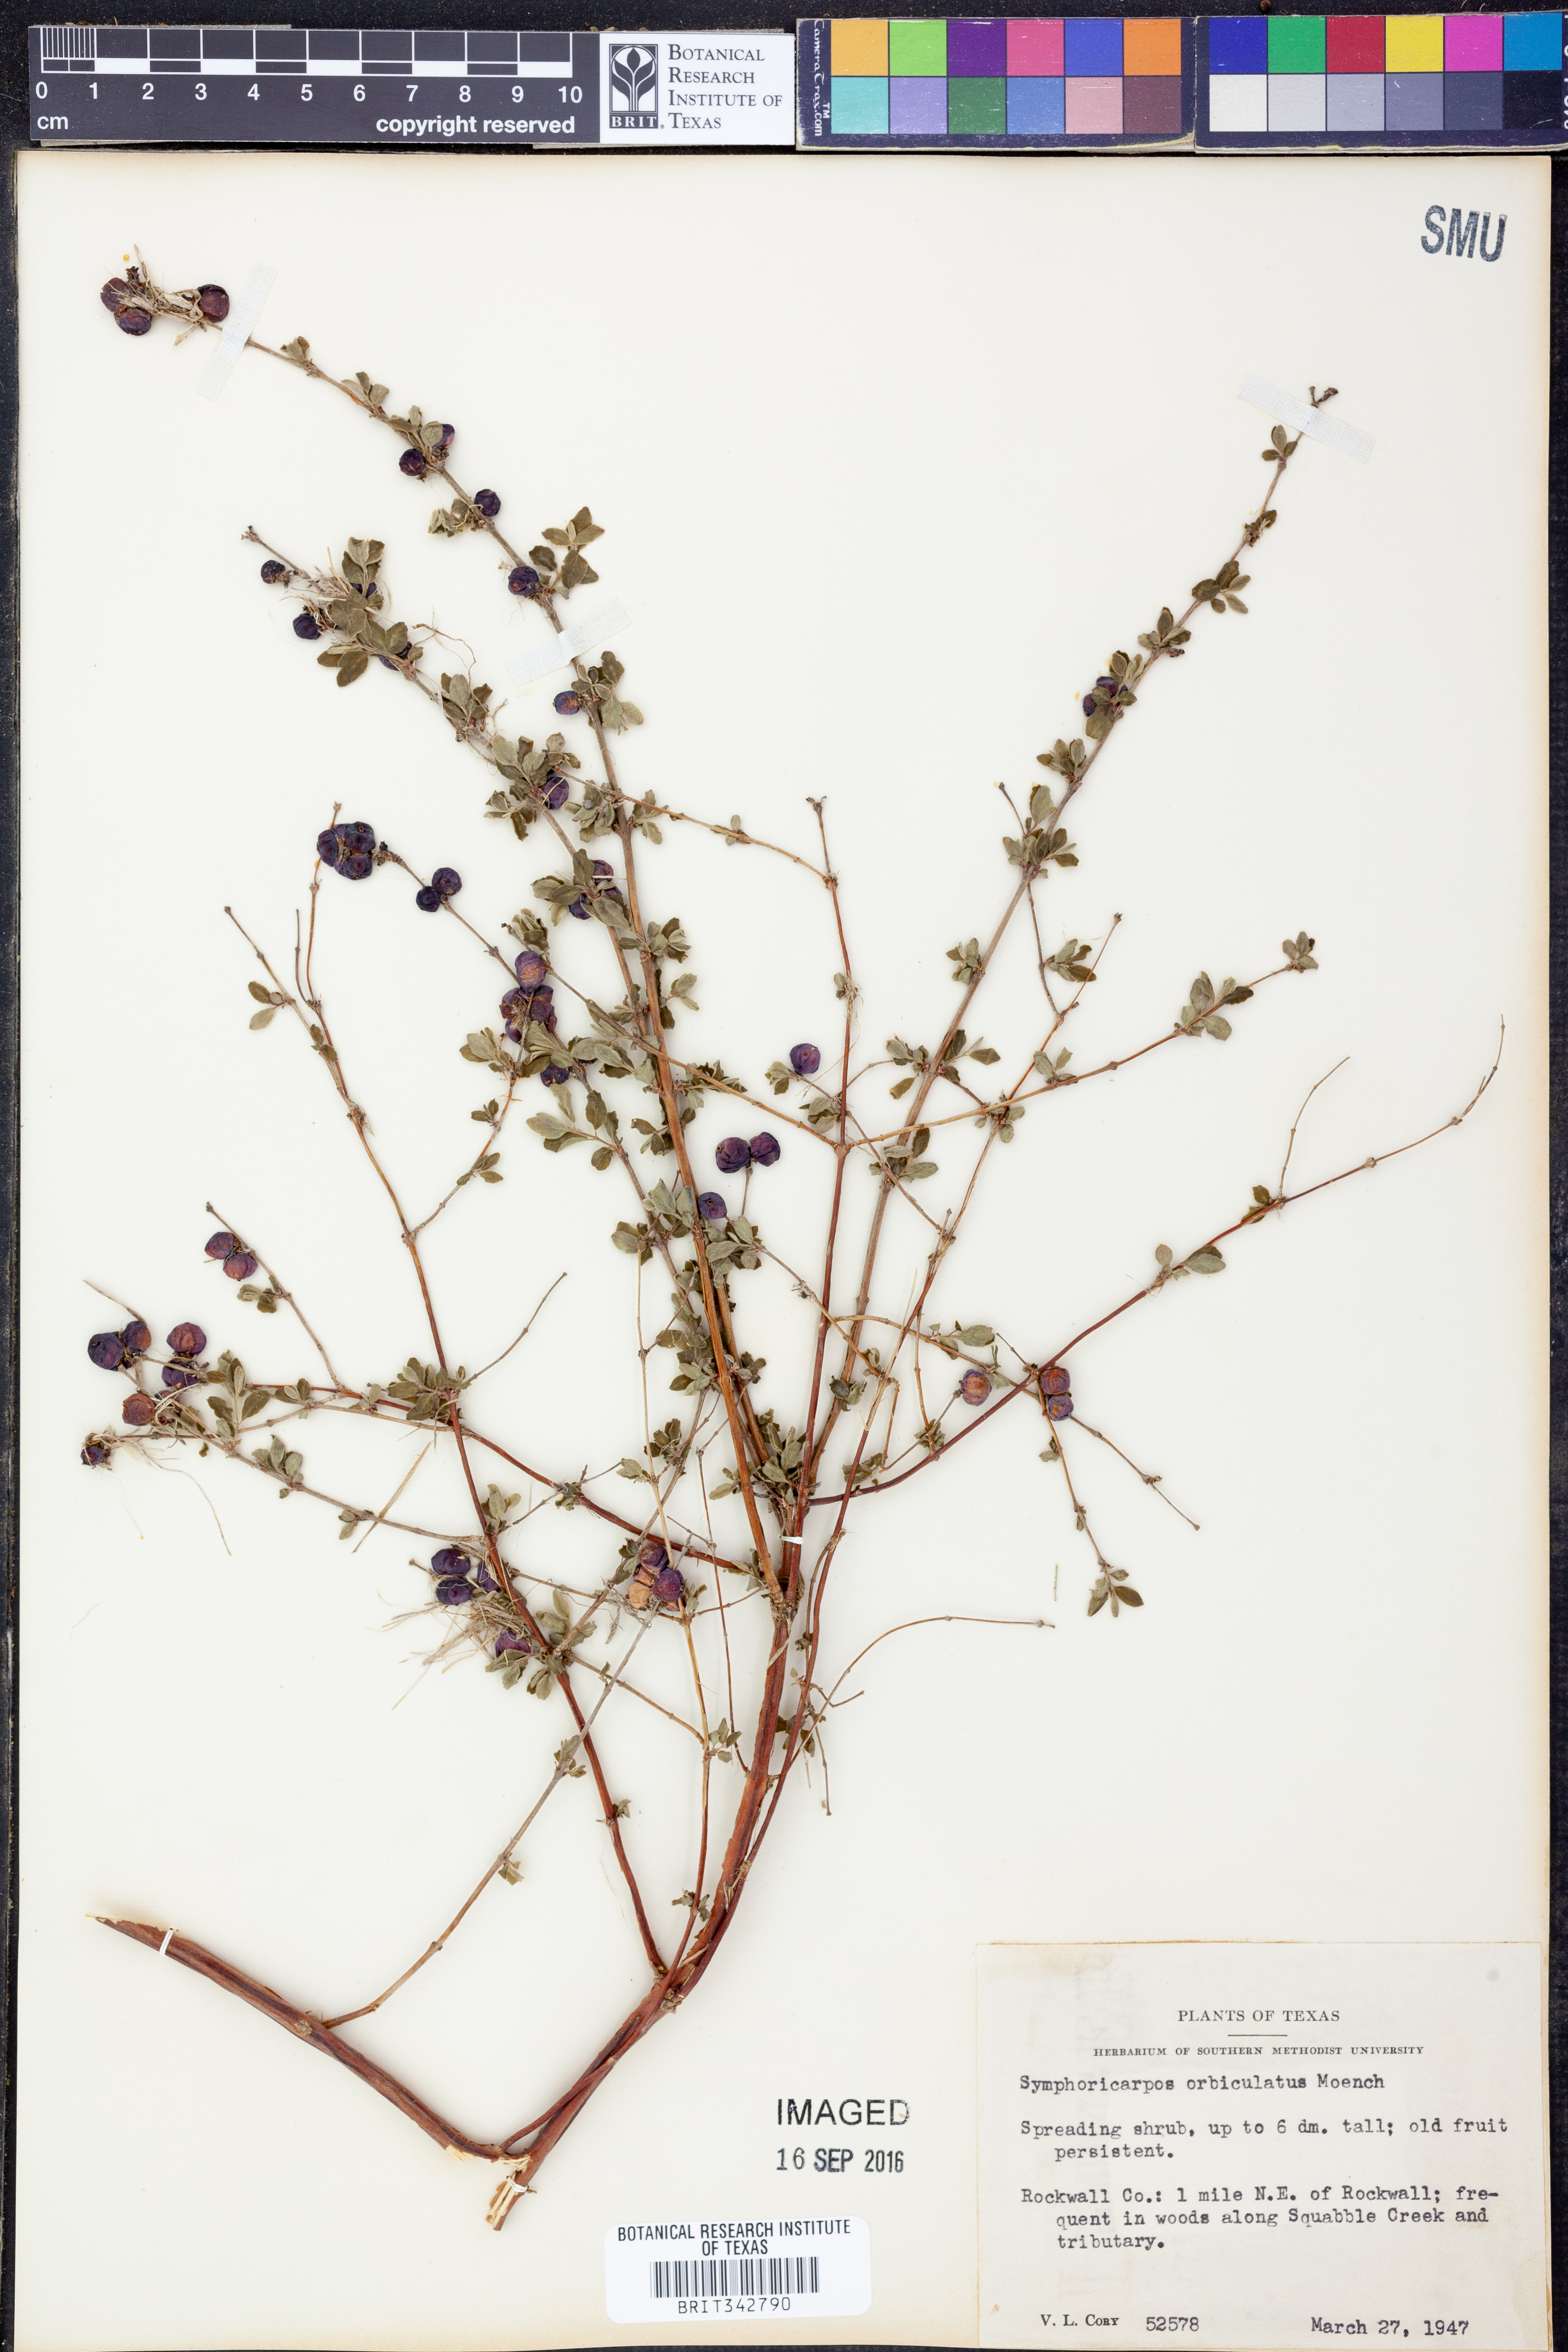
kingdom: Plantae
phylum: Tracheophyta
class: Magnoliopsida
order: Dipsacales
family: Caprifoliaceae
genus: Symphoricarpos
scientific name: Symphoricarpos orbiculatus
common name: Coralberry
